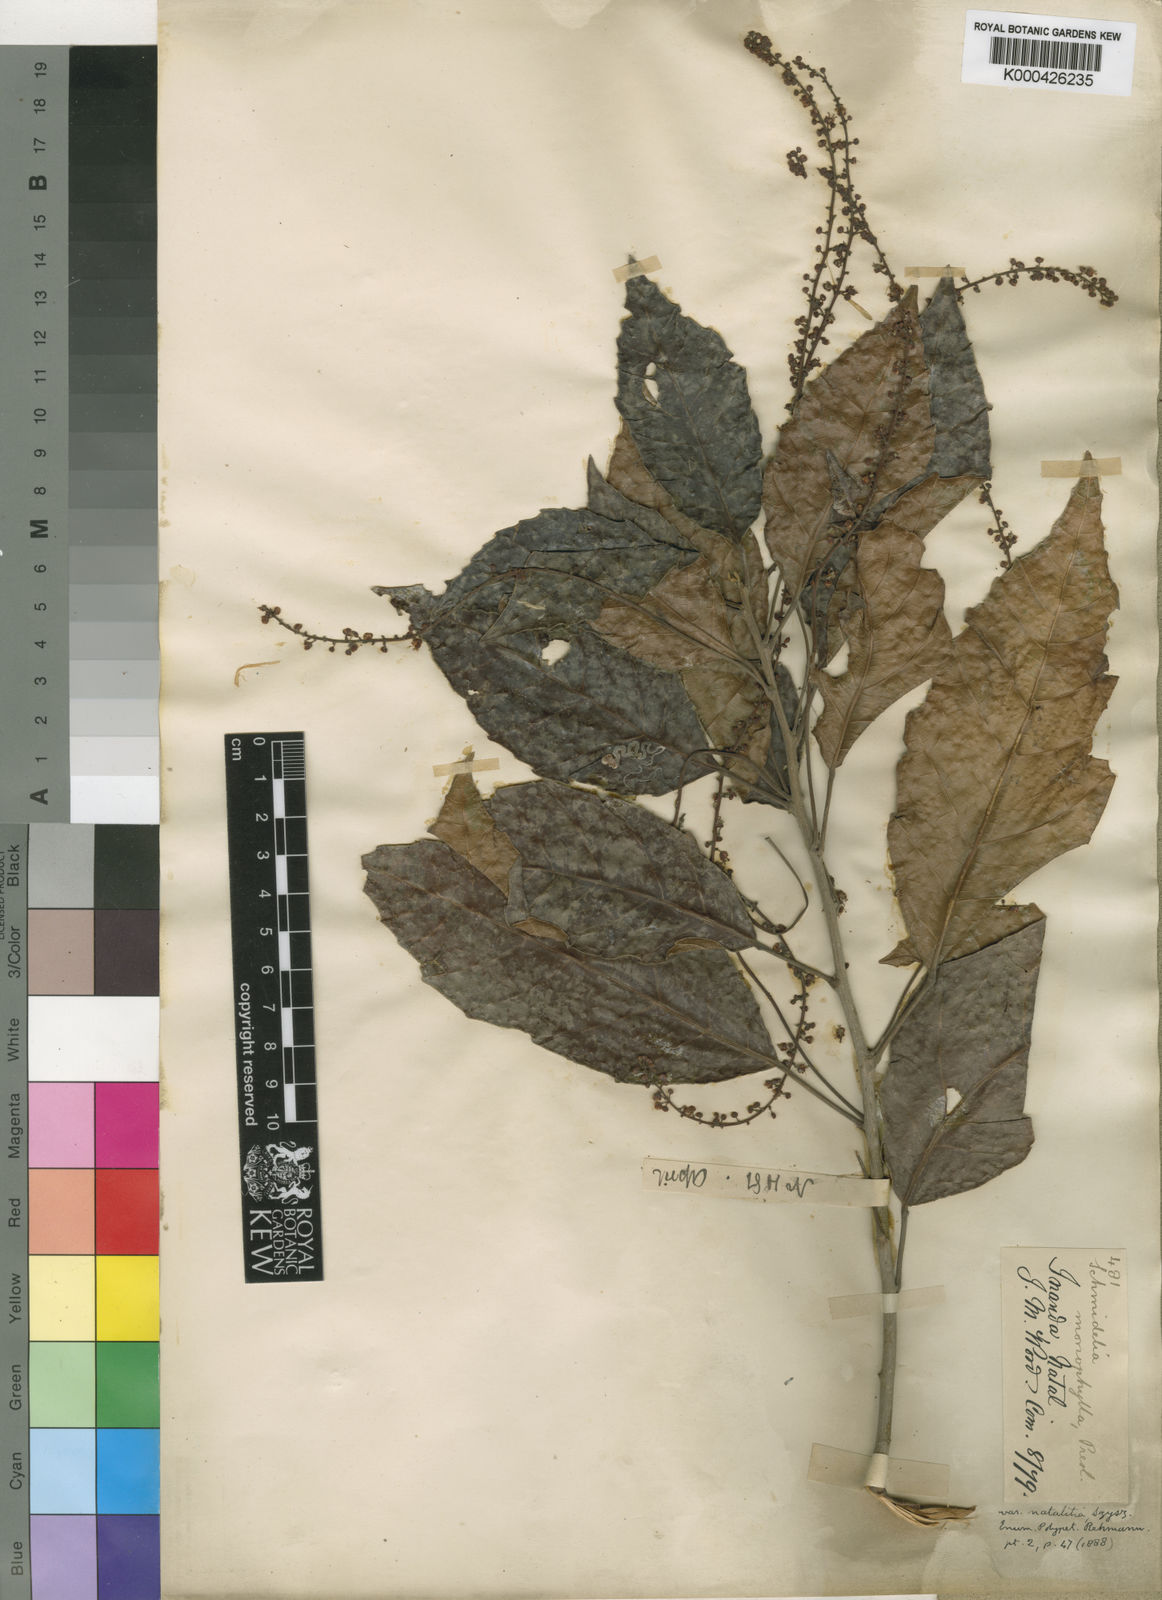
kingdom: Plantae
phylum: Tracheophyta
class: Magnoliopsida
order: Sapindales
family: Sapindaceae
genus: Allophylus
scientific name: Allophylus dregeanus
